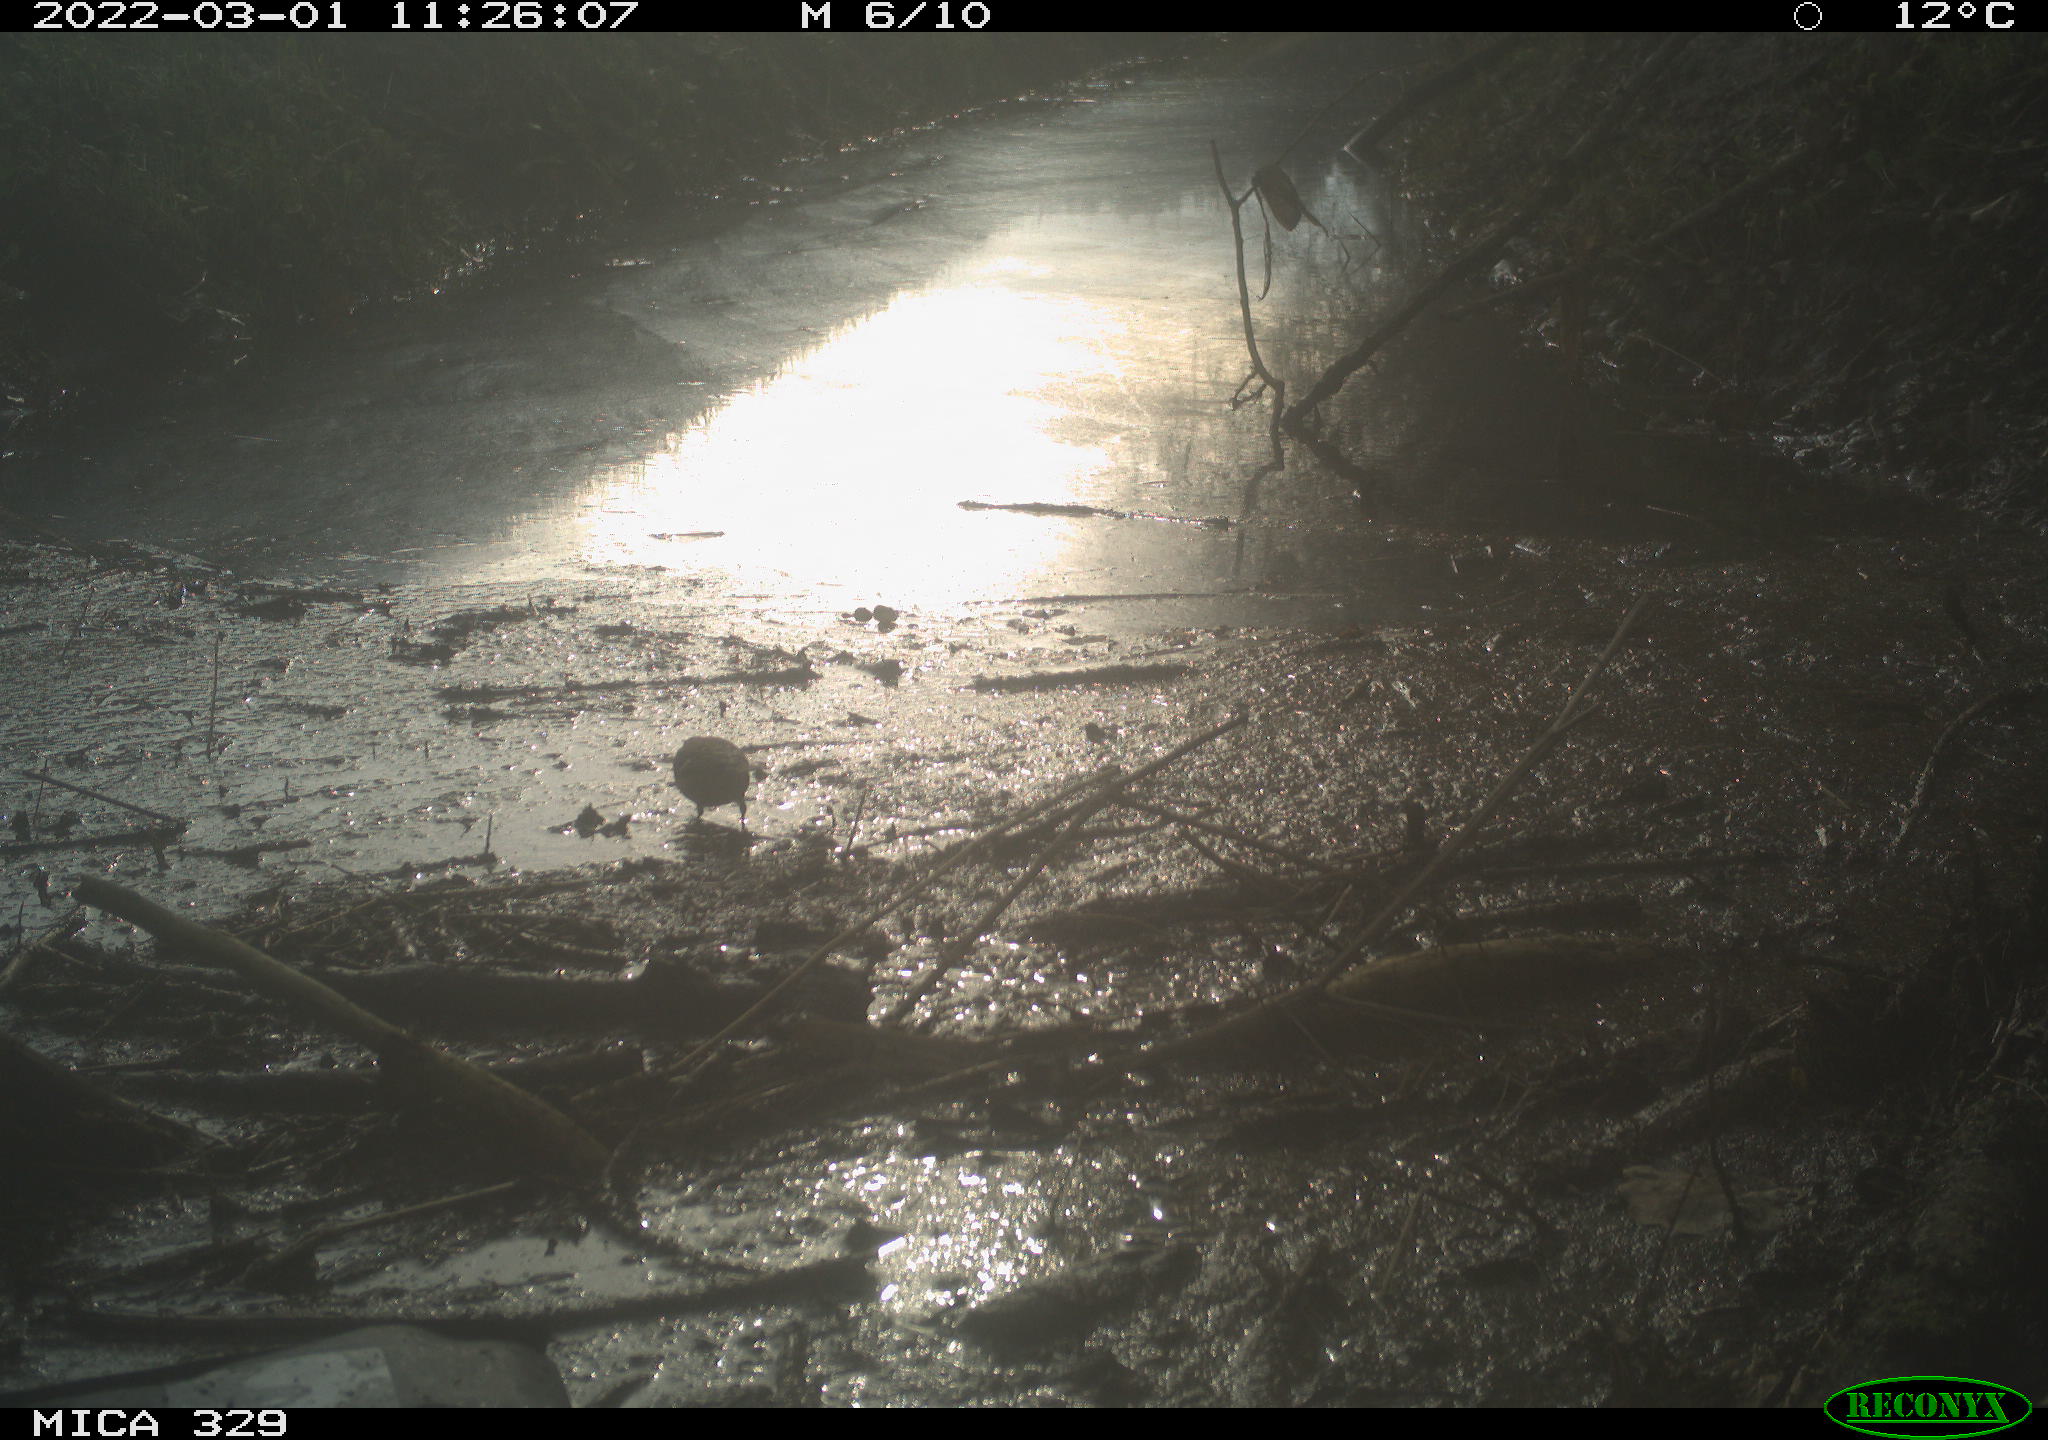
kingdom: Animalia
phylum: Chordata
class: Aves
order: Passeriformes
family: Fringillidae
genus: Fringilla
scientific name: Fringilla coelebs
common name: Common chaffinch
